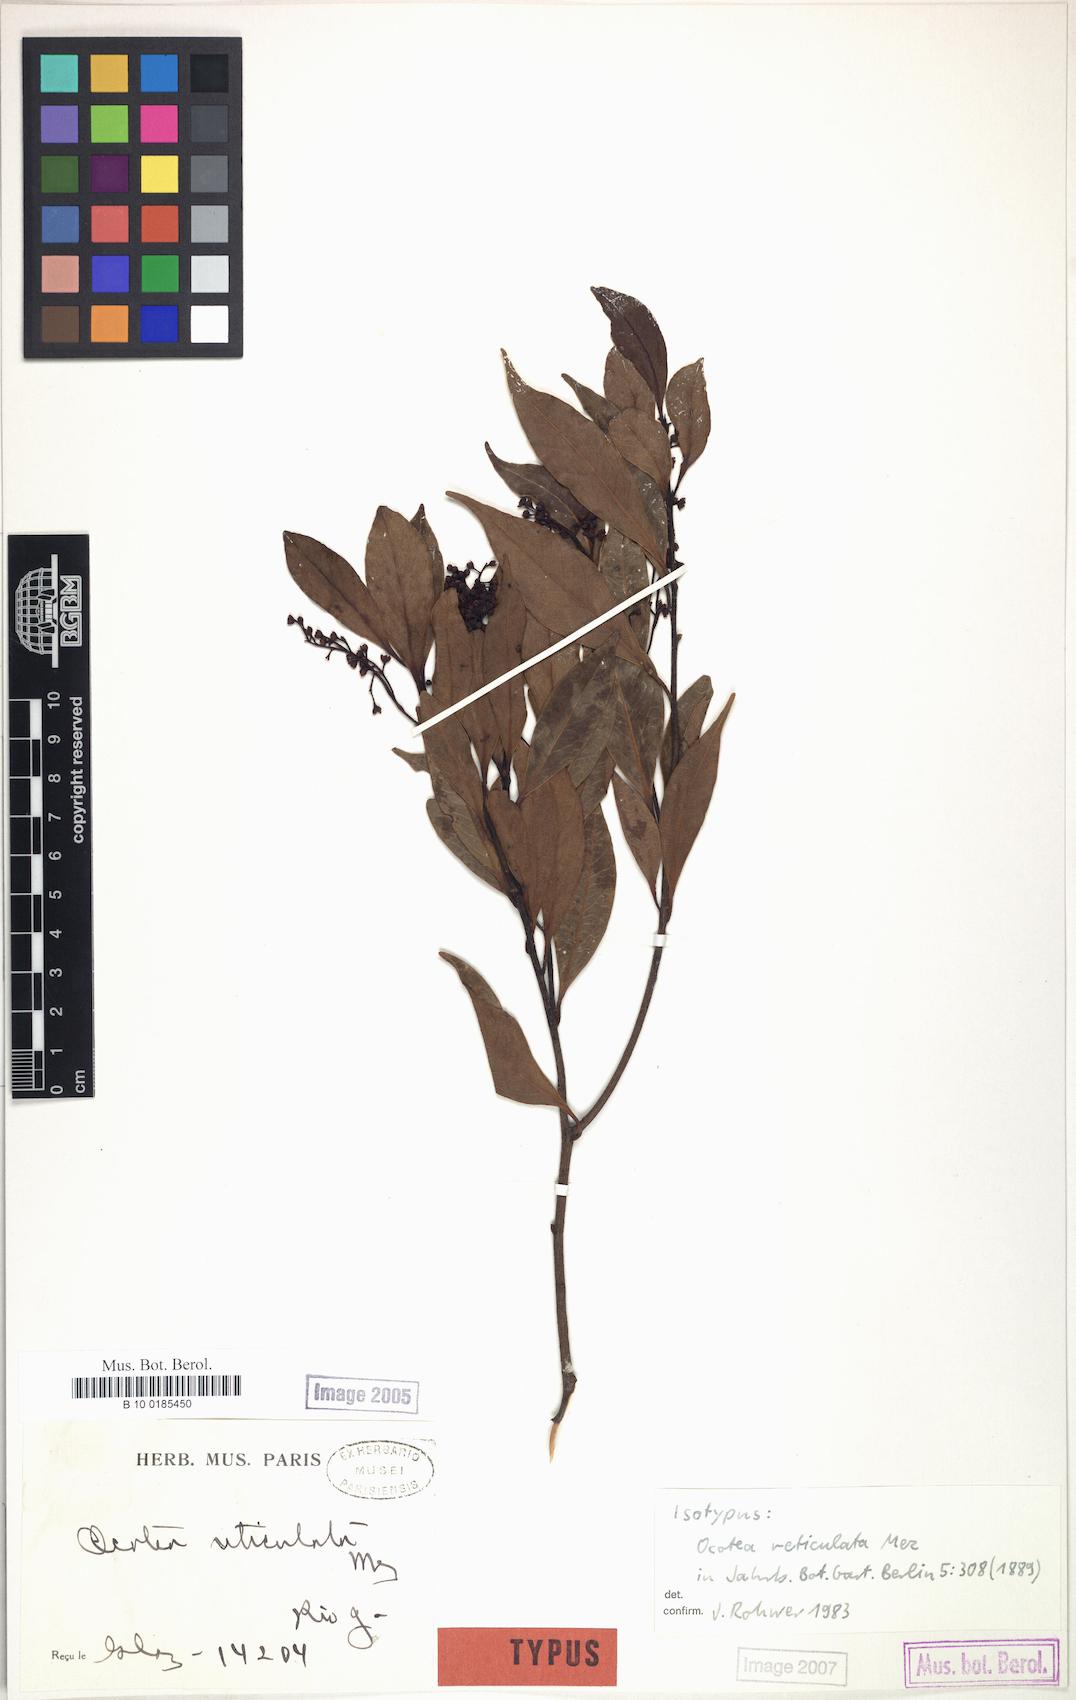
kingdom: Plantae
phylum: Tracheophyta
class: Magnoliopsida
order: Laurales
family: Lauraceae
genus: Mespilodaphne
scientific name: Mespilodaphne corymbosa
